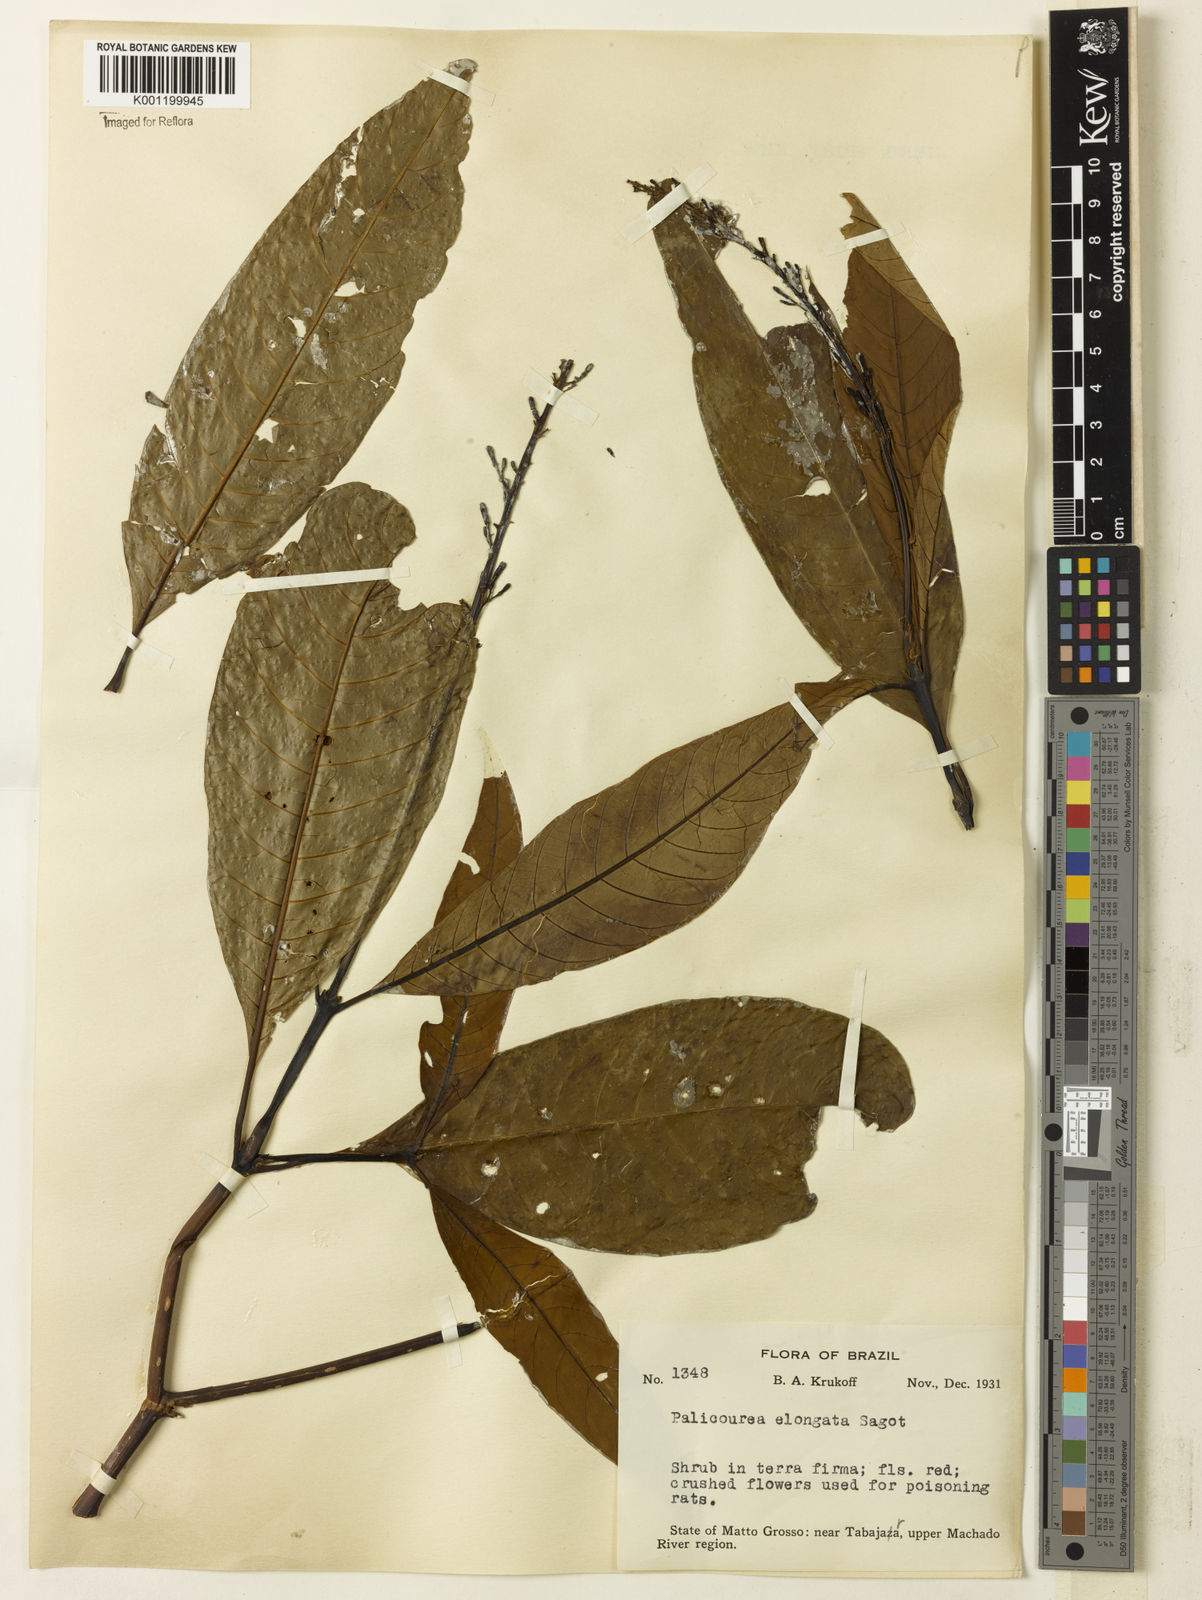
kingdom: Plantae
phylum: Tracheophyta
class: Magnoliopsida
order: Gentianales
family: Rubiaceae
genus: Palicourea
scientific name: Palicourea macrobotrys
